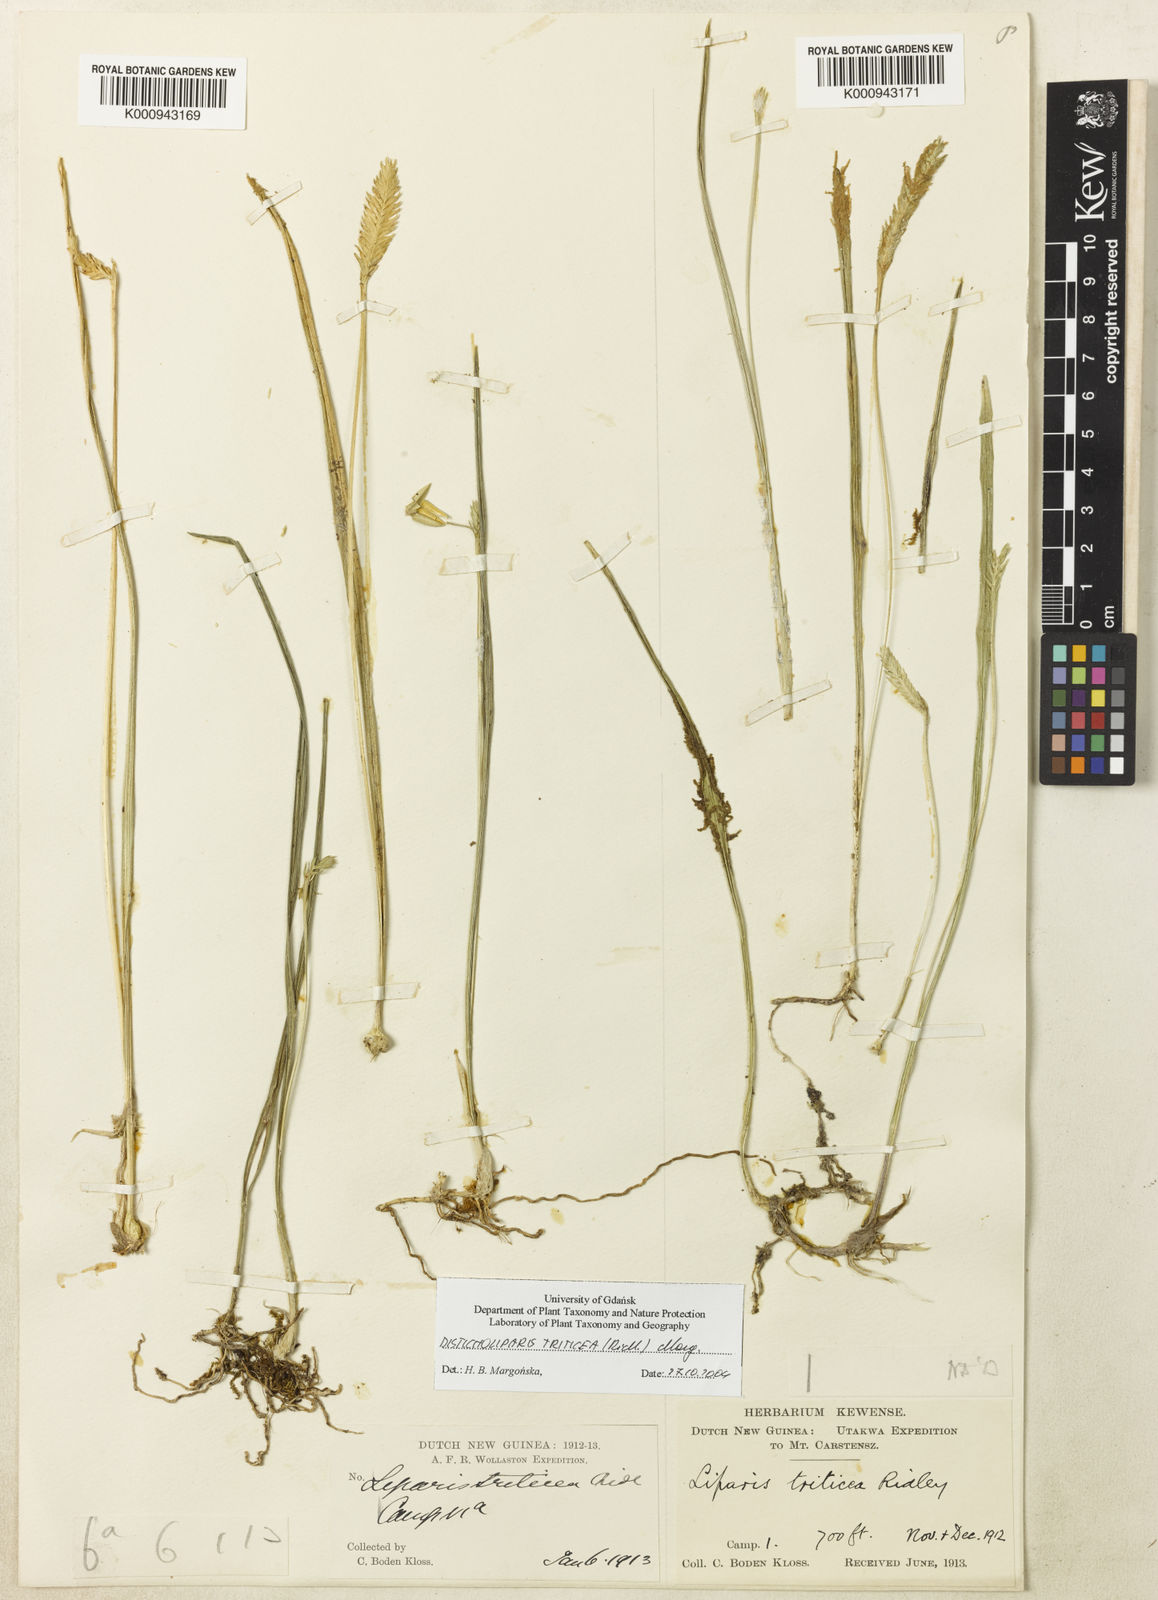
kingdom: Plantae
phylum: Tracheophyta
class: Liliopsida
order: Asparagales
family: Orchidaceae
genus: Liparis
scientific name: Liparis triticea
